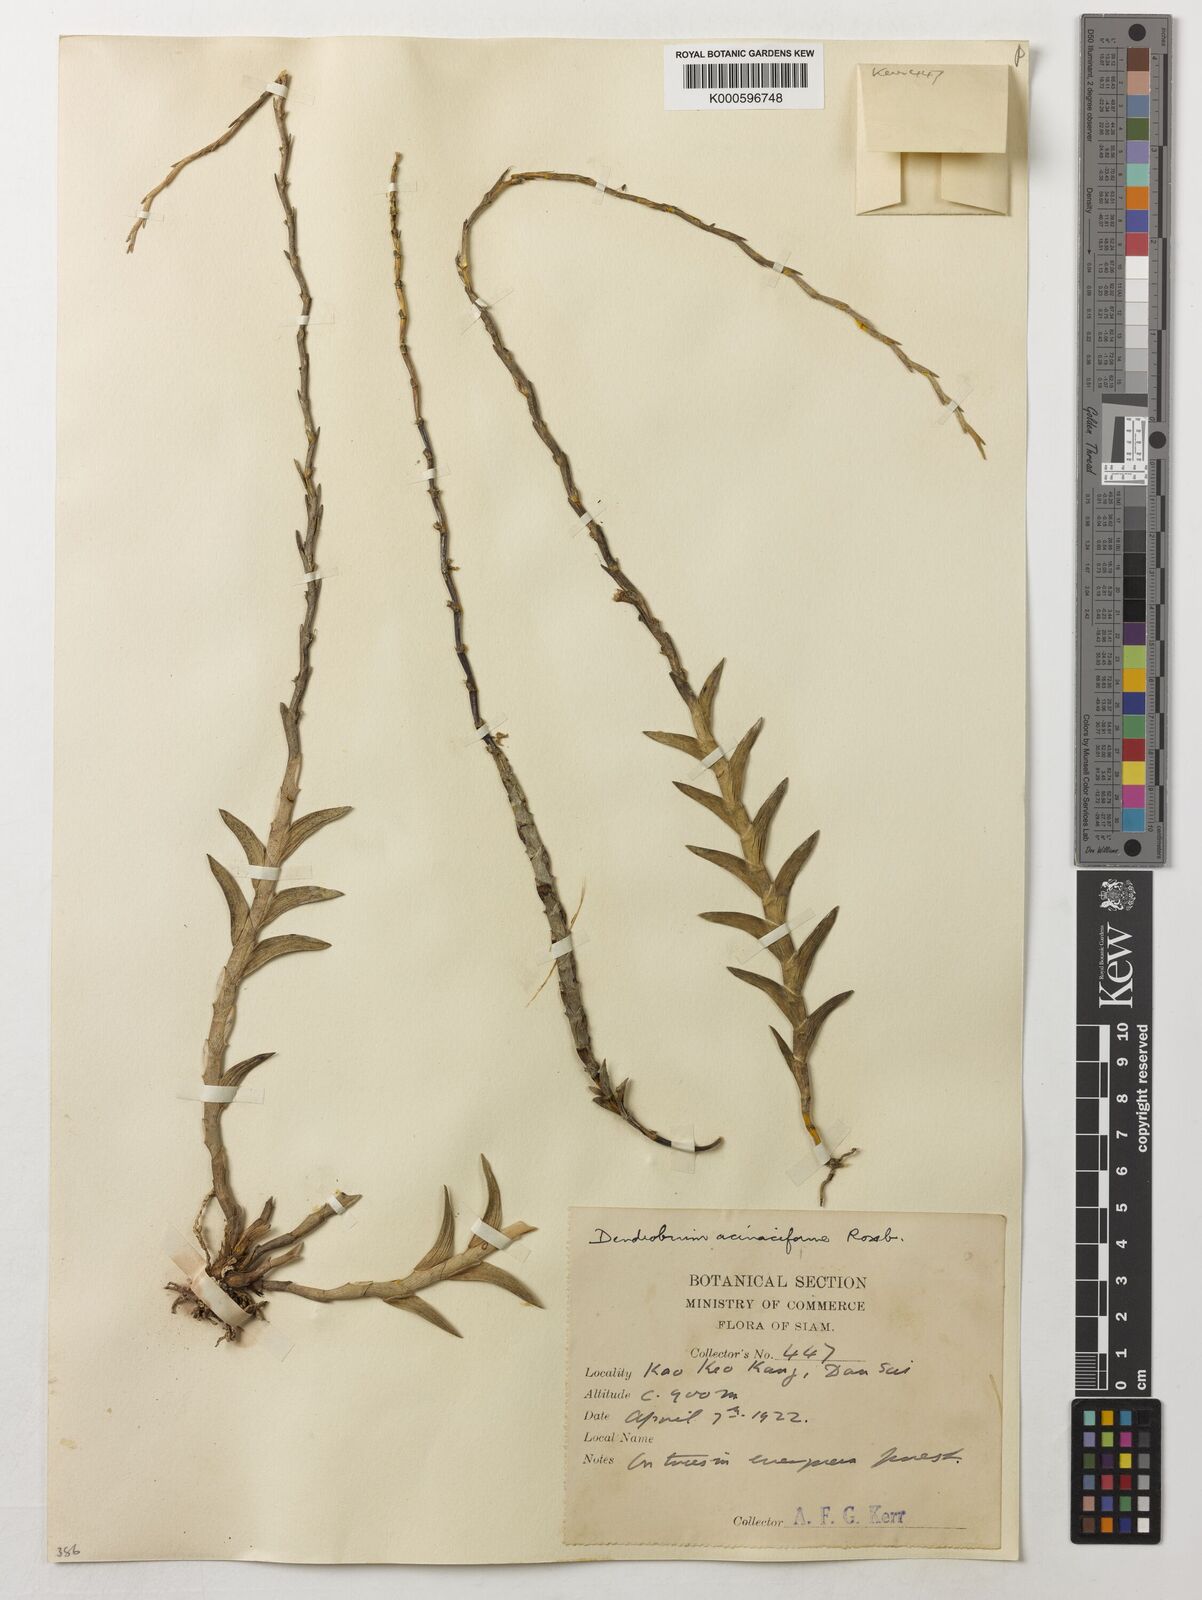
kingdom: Plantae
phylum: Tracheophyta
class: Liliopsida
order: Asparagales
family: Orchidaceae
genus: Dendrobium
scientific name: Dendrobium acinaciforme
